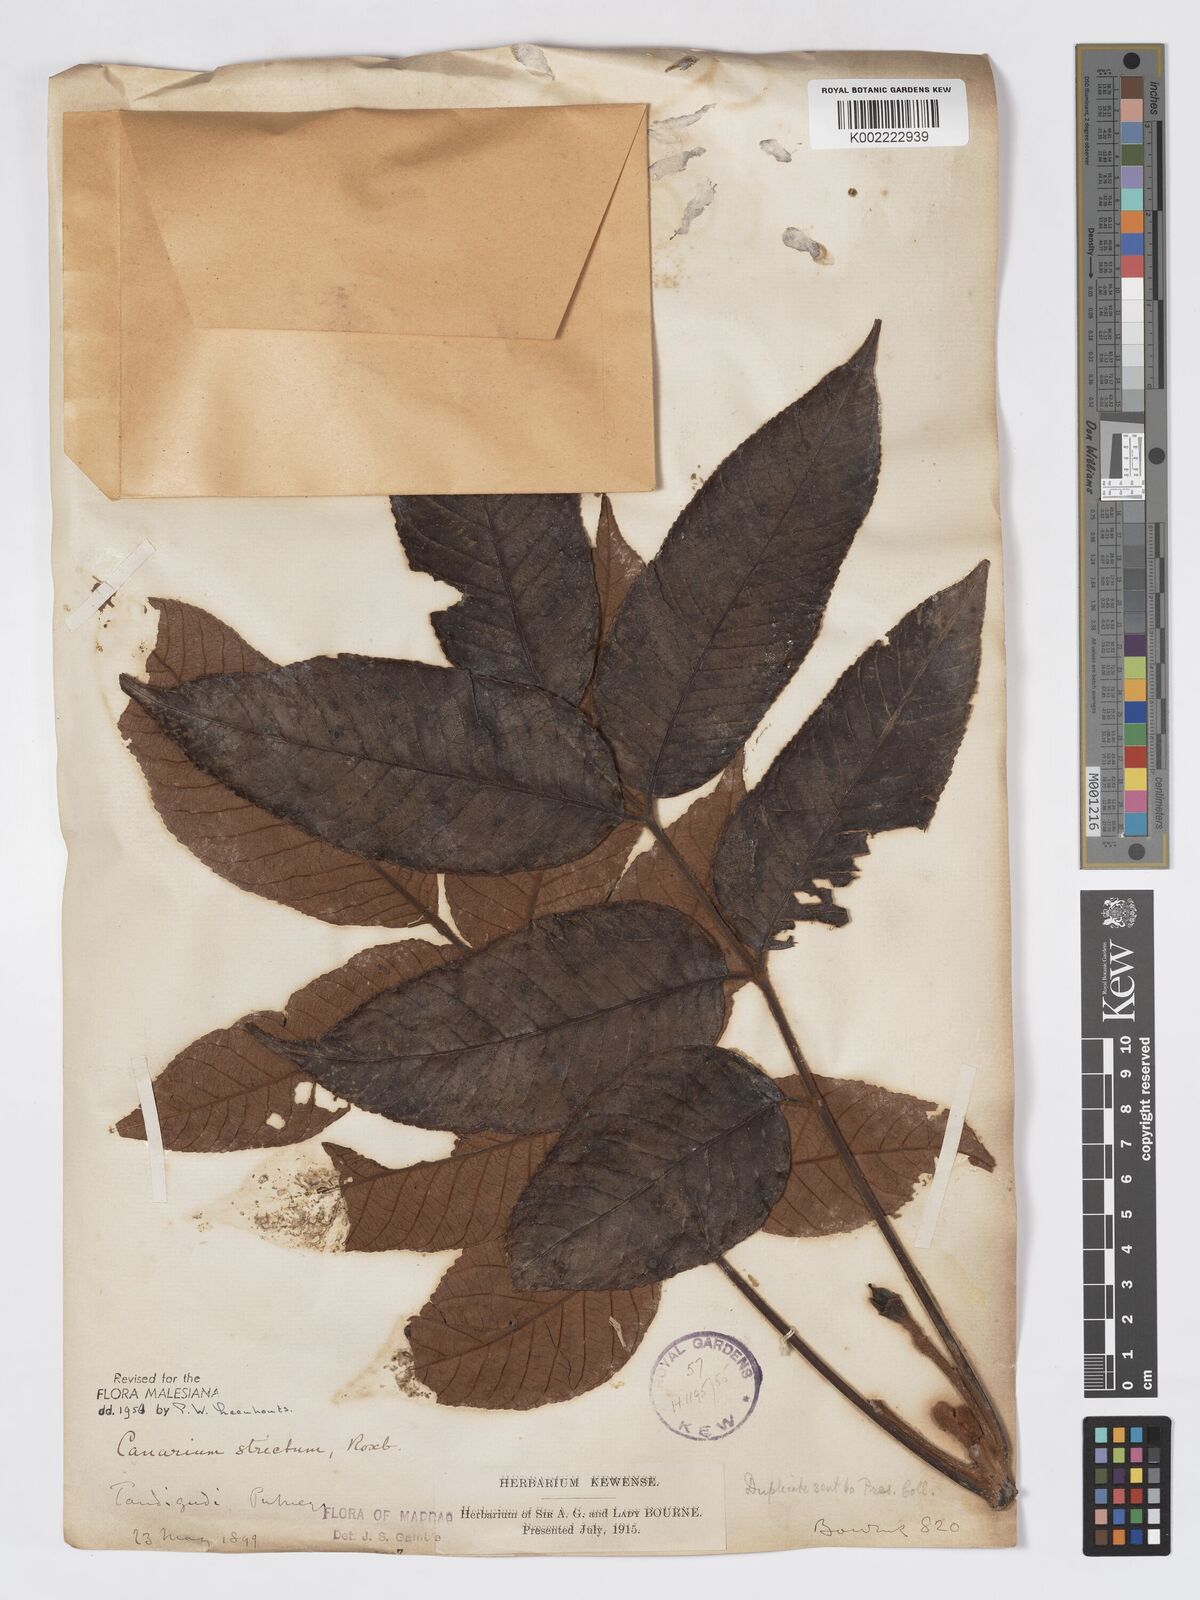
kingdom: Plantae
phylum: Tracheophyta
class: Magnoliopsida
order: Sapindales
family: Burseraceae
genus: Canarium
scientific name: Canarium strictum
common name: Indian white-mahogany
